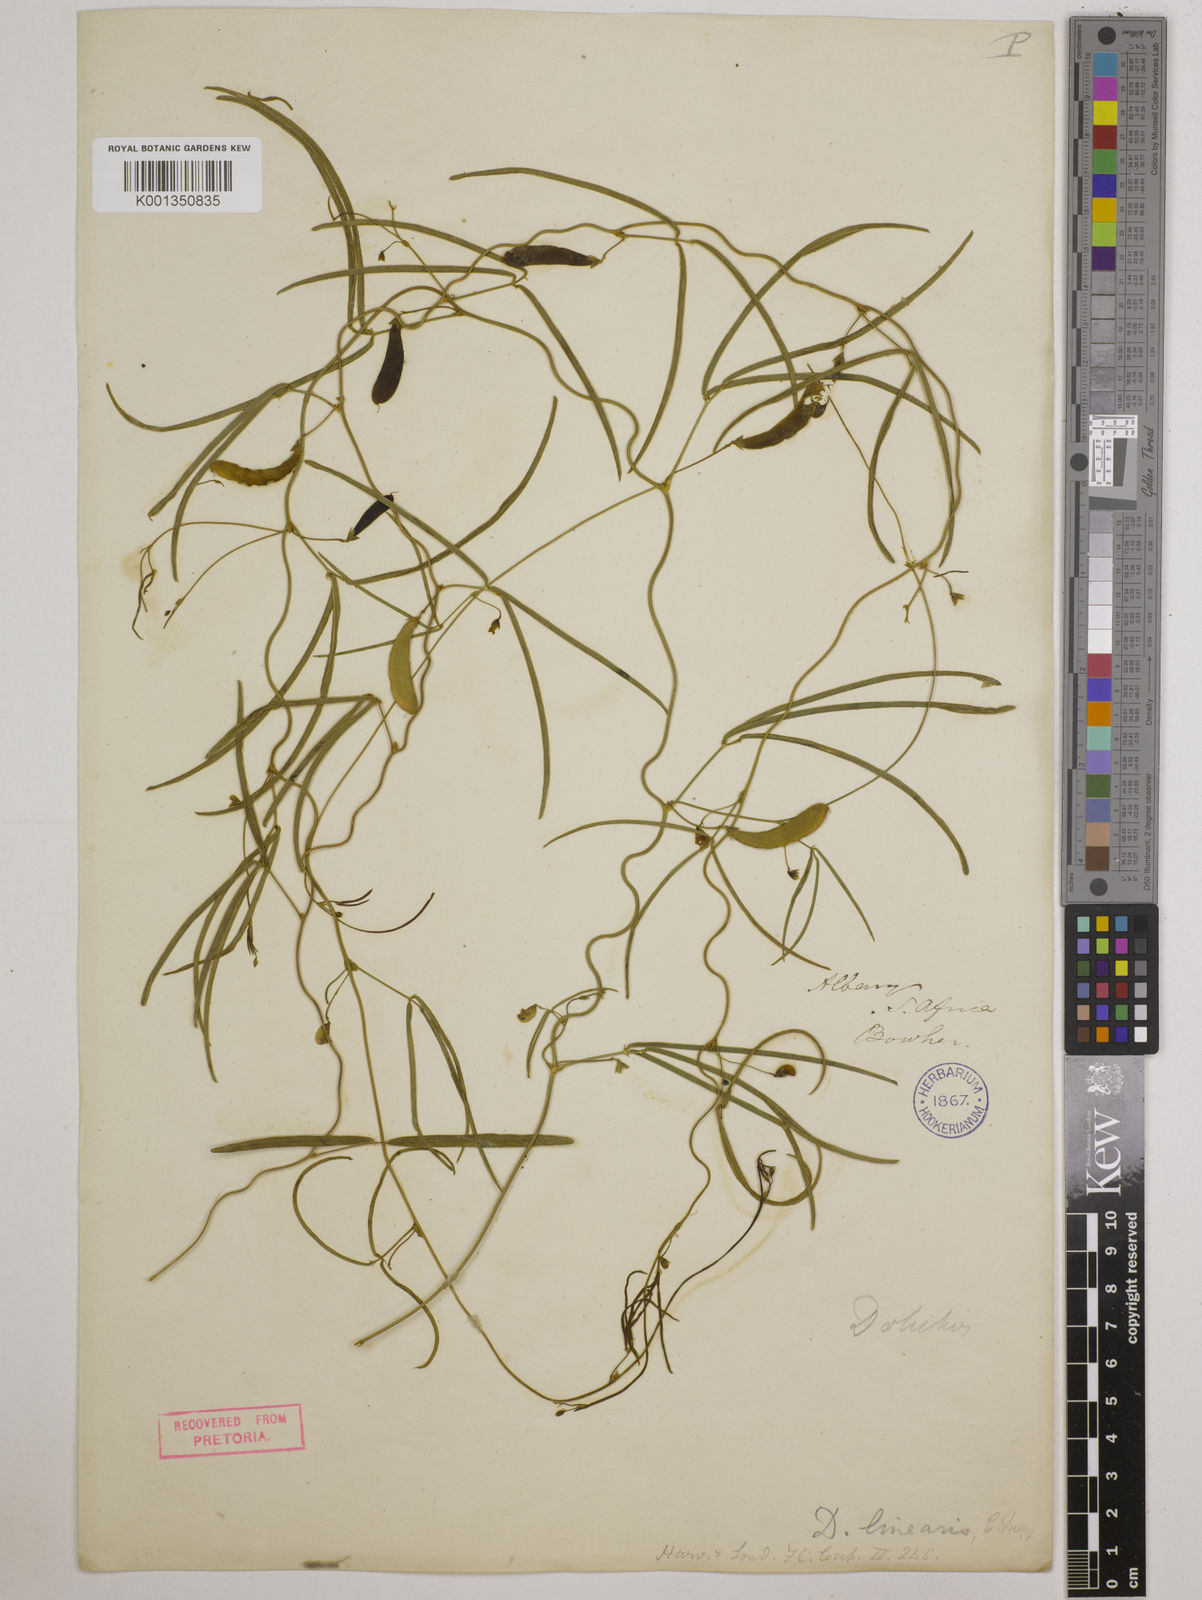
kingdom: Plantae
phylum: Tracheophyta
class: Magnoliopsida
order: Fabales
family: Fabaceae
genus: Dolichos
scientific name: Dolichos linearis
